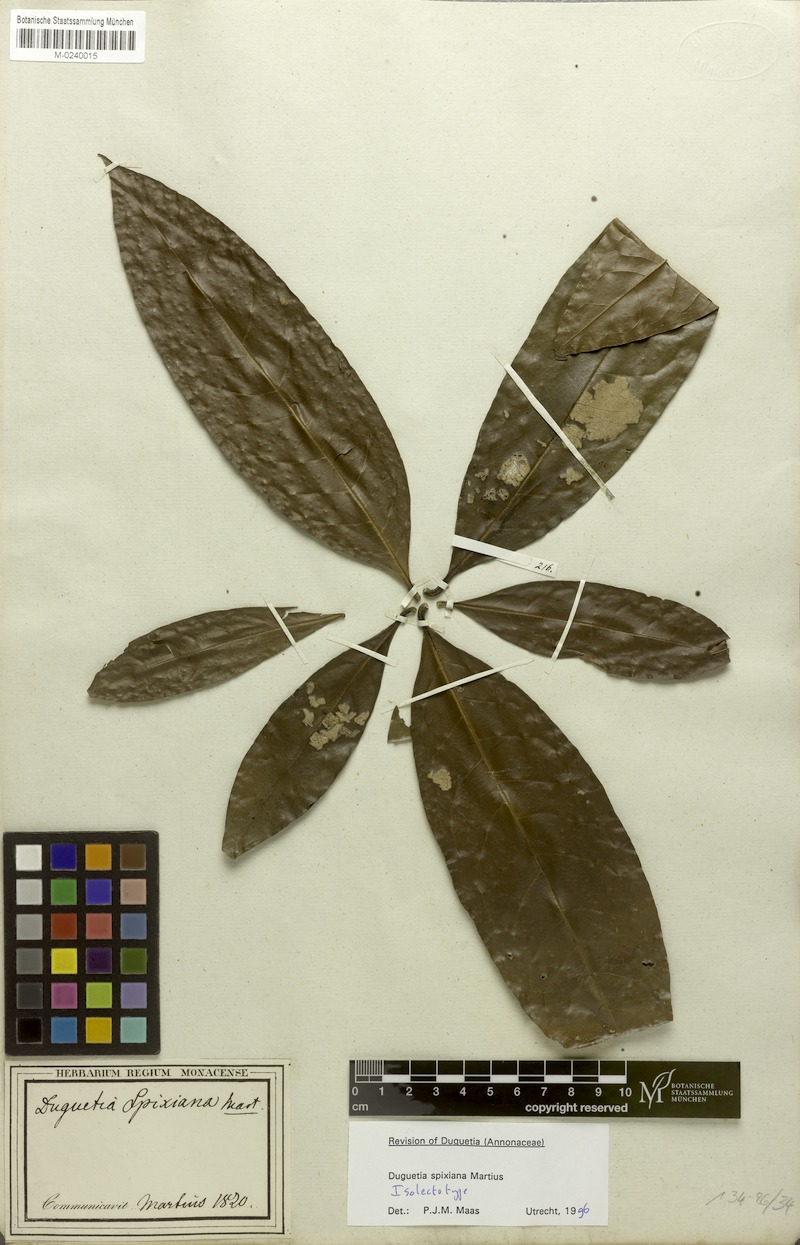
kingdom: Plantae
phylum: Tracheophyta
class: Magnoliopsida
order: Magnoliales
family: Annonaceae
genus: Duguetia
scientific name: Duguetia spixiana
